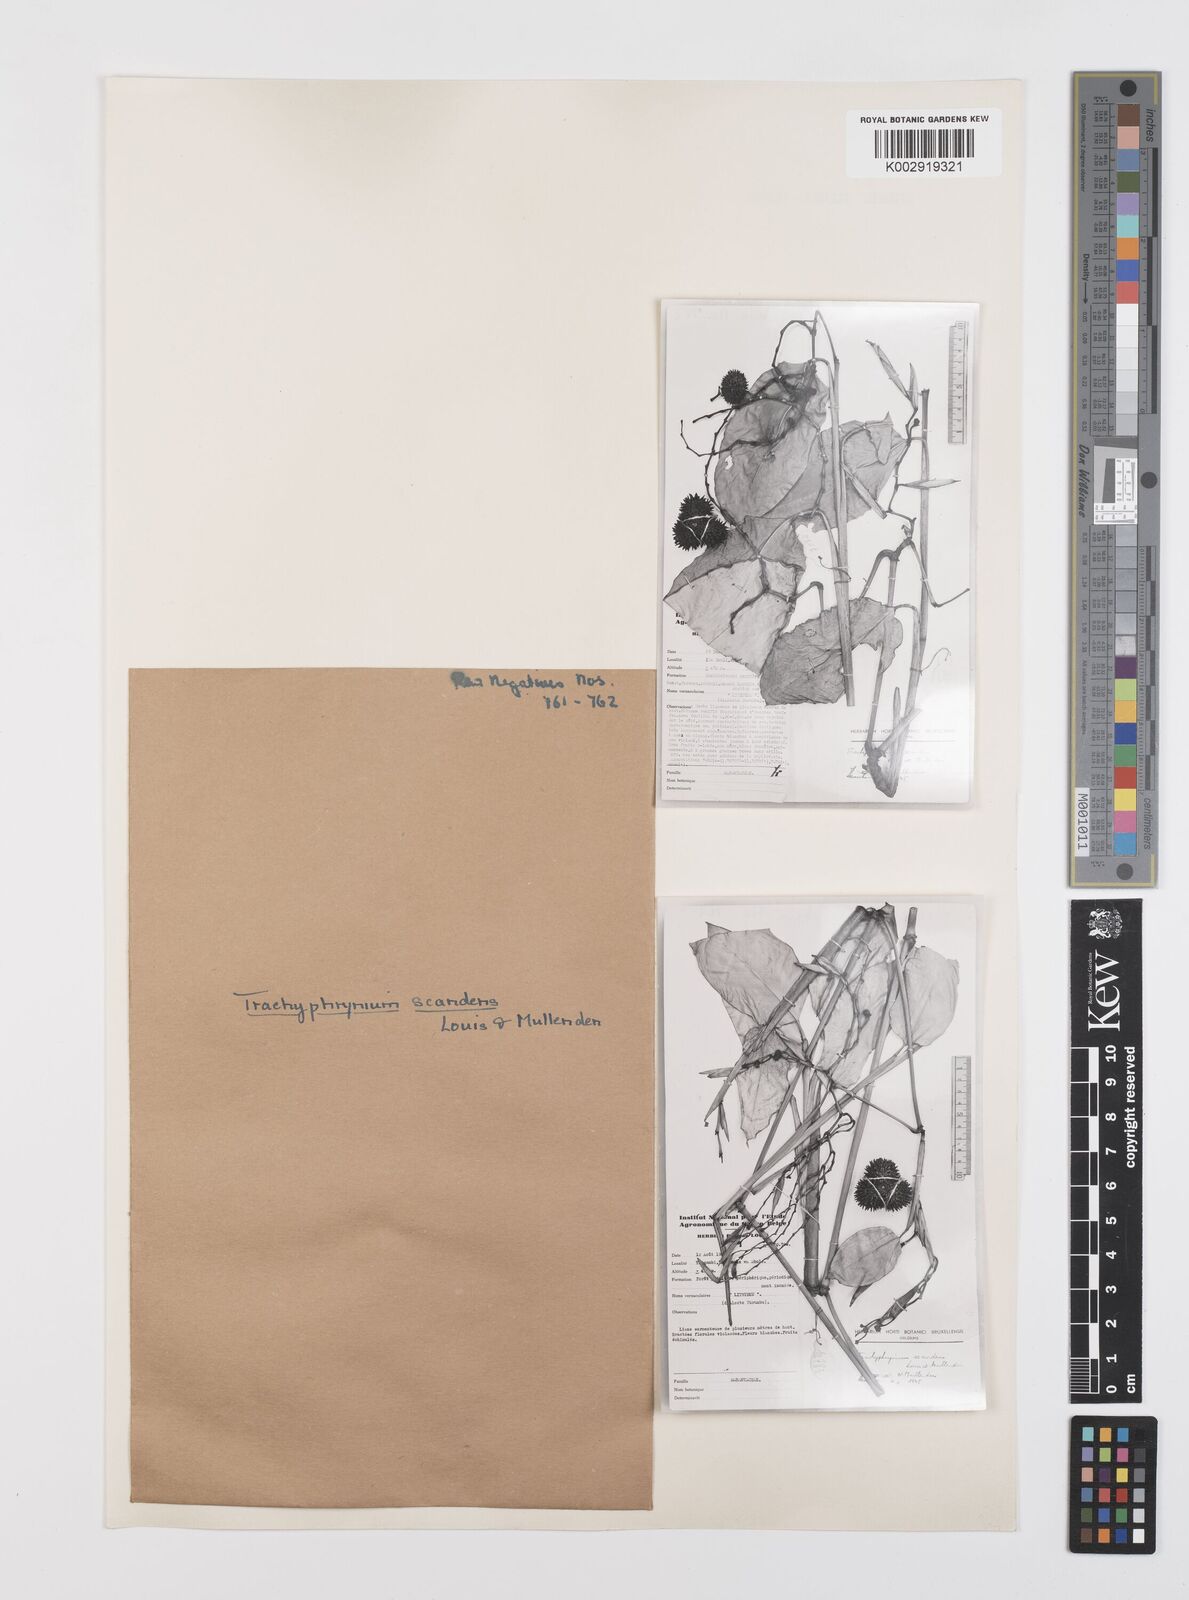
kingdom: Plantae
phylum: Tracheophyta
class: Liliopsida
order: Zingiberales
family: Marantaceae
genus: Hypselodelphys
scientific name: Hypselodelphys scandens
